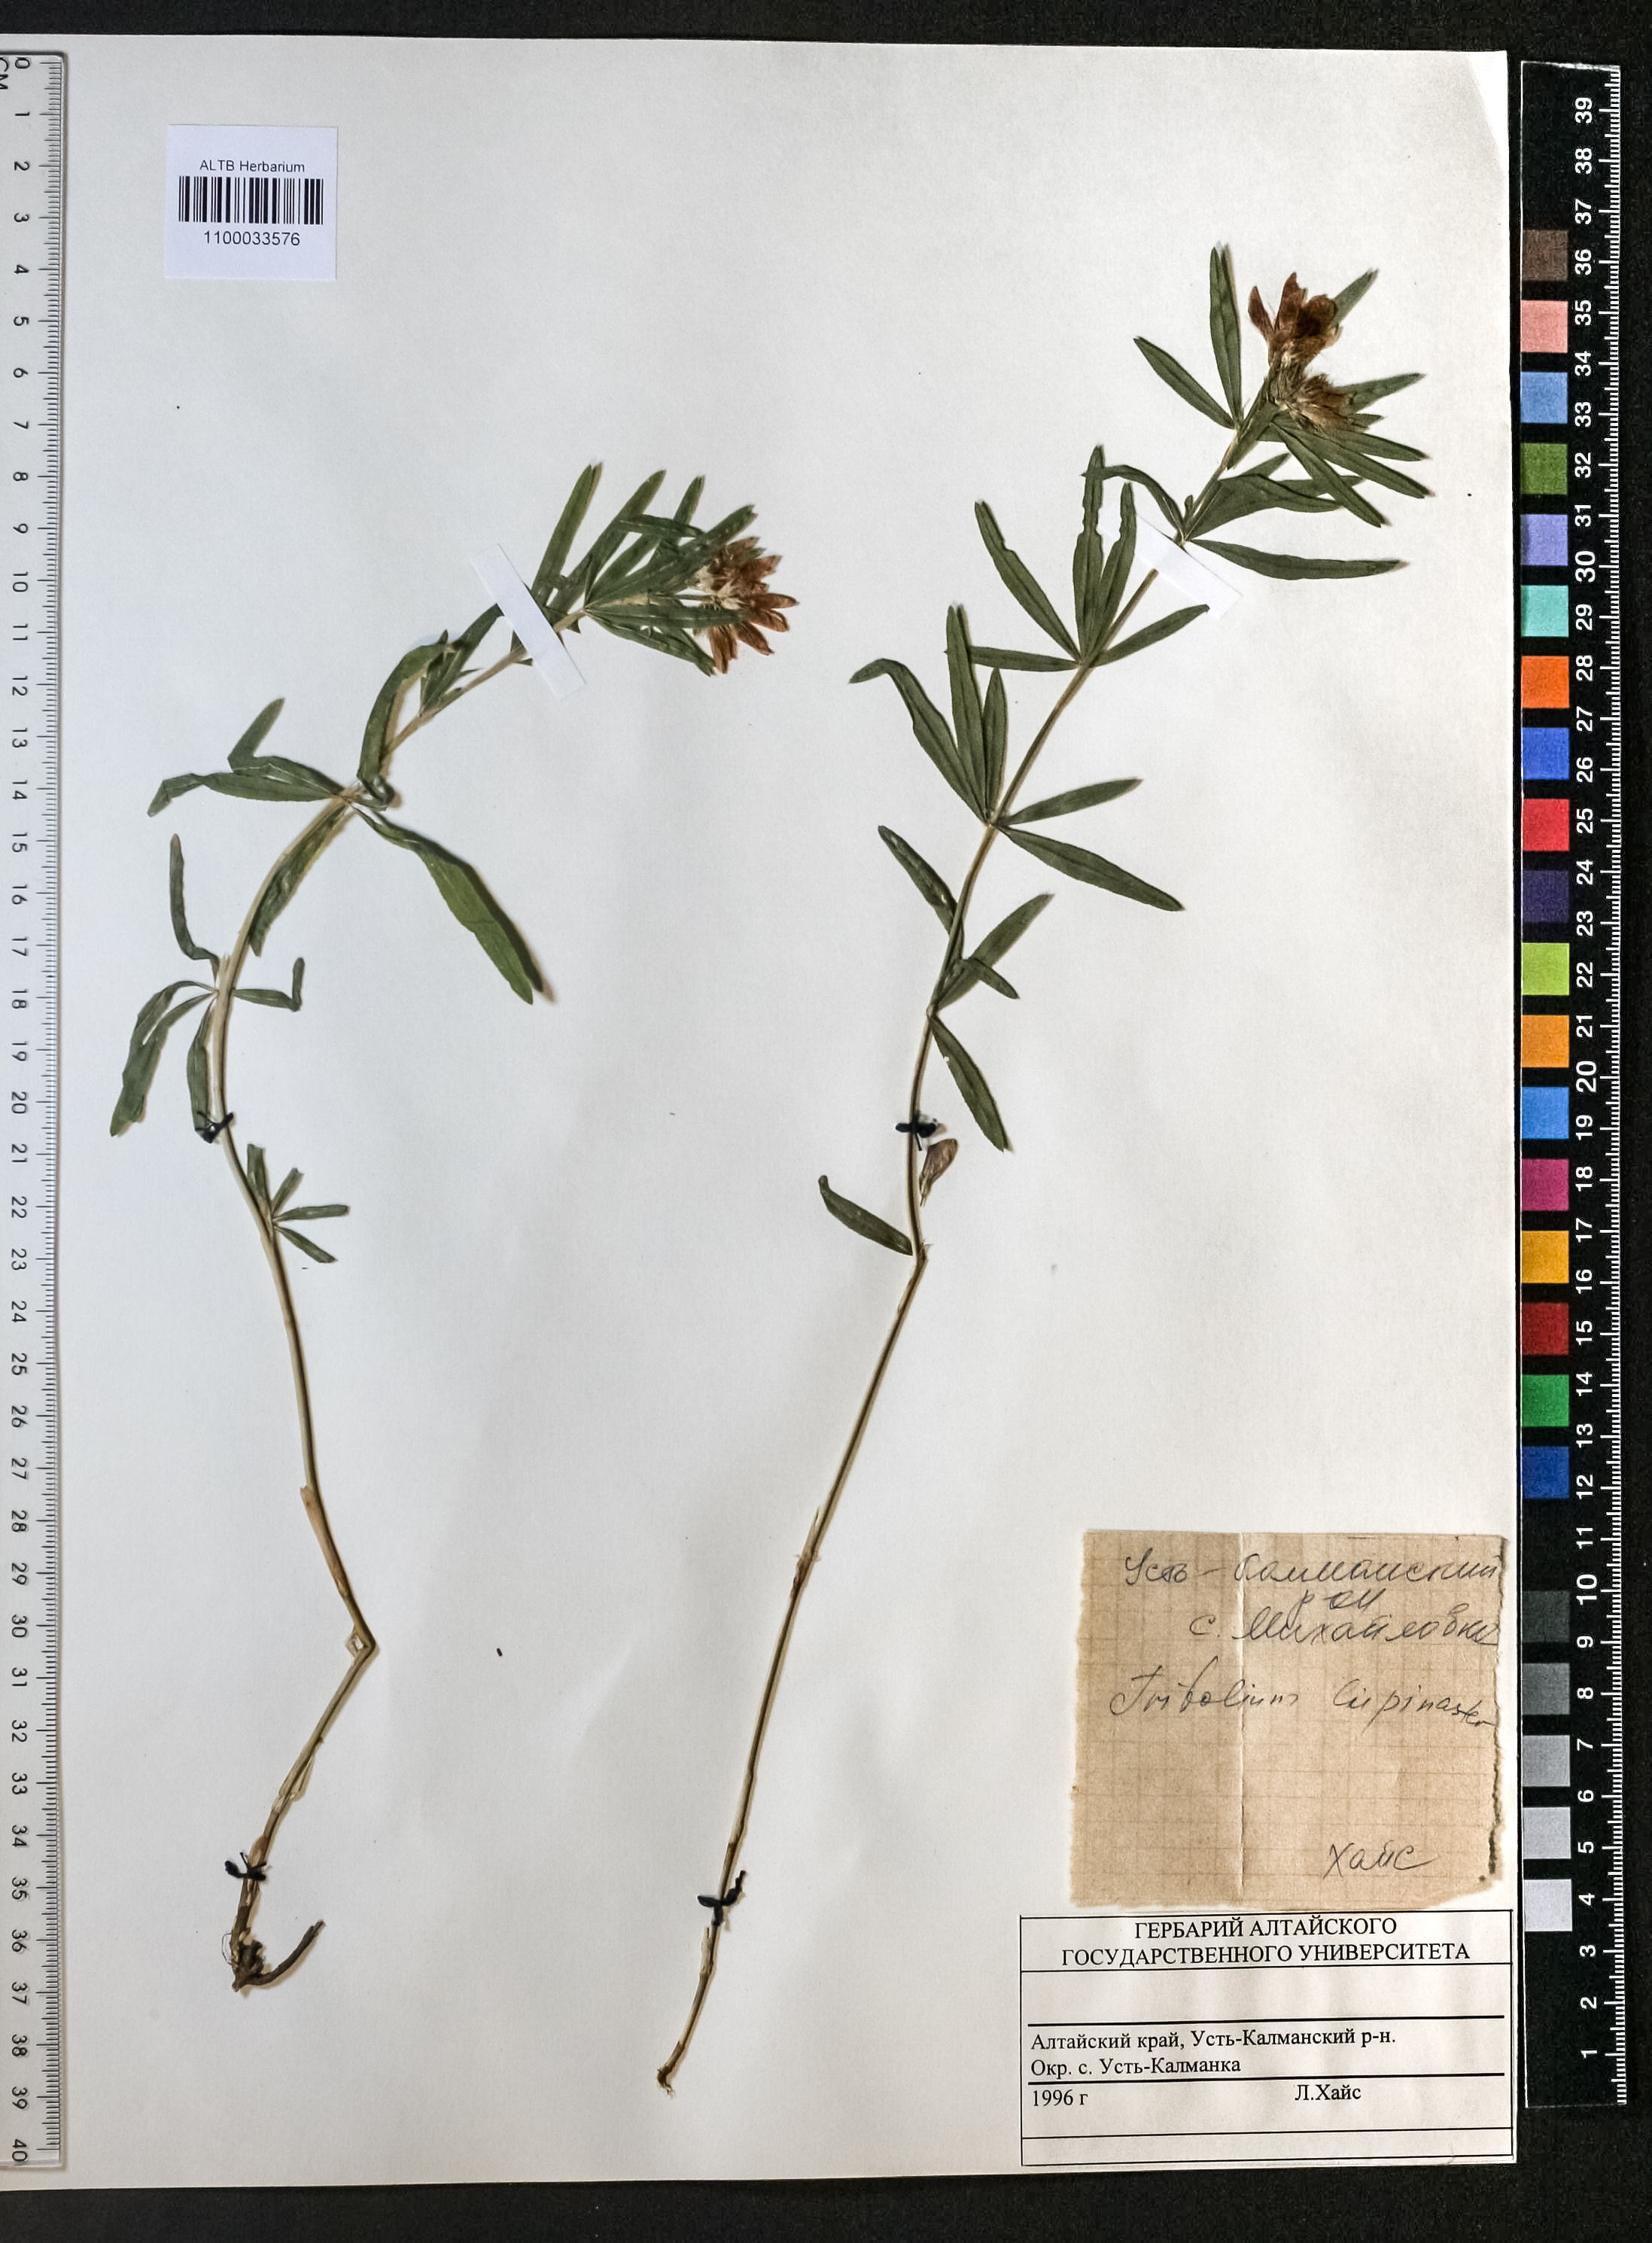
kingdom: Plantae
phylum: Tracheophyta
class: Magnoliopsida
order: Fabales
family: Fabaceae
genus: Trifolium
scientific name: Trifolium lupinaster
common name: Lupine clover
